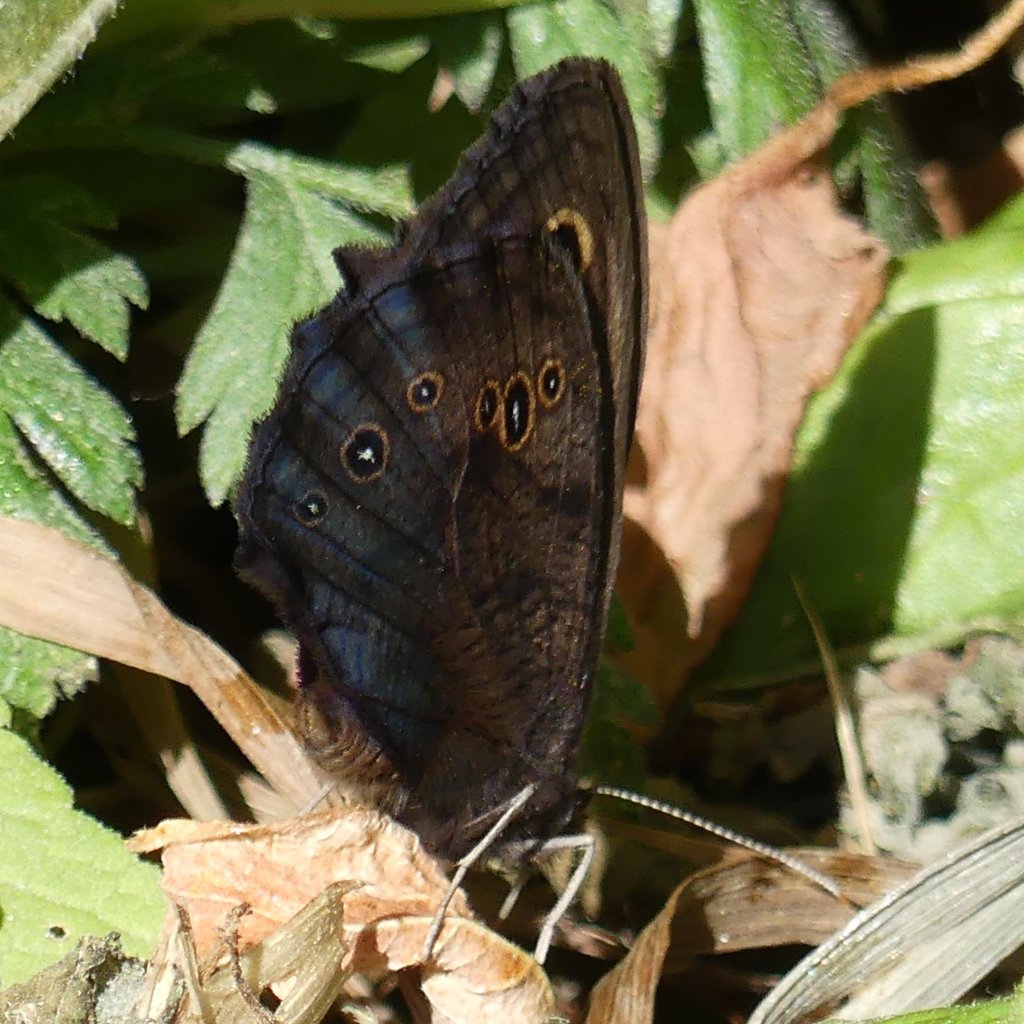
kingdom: Animalia
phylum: Arthropoda
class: Insecta
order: Lepidoptera
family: Nymphalidae
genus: Cercyonis
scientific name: Cercyonis pegala
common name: Common Wood-Nymph
